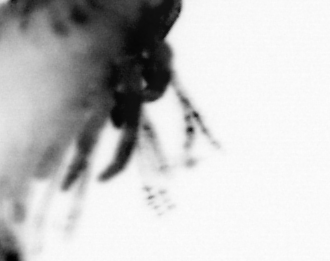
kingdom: Animalia
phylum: Annelida
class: Polychaeta
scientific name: Polychaeta
